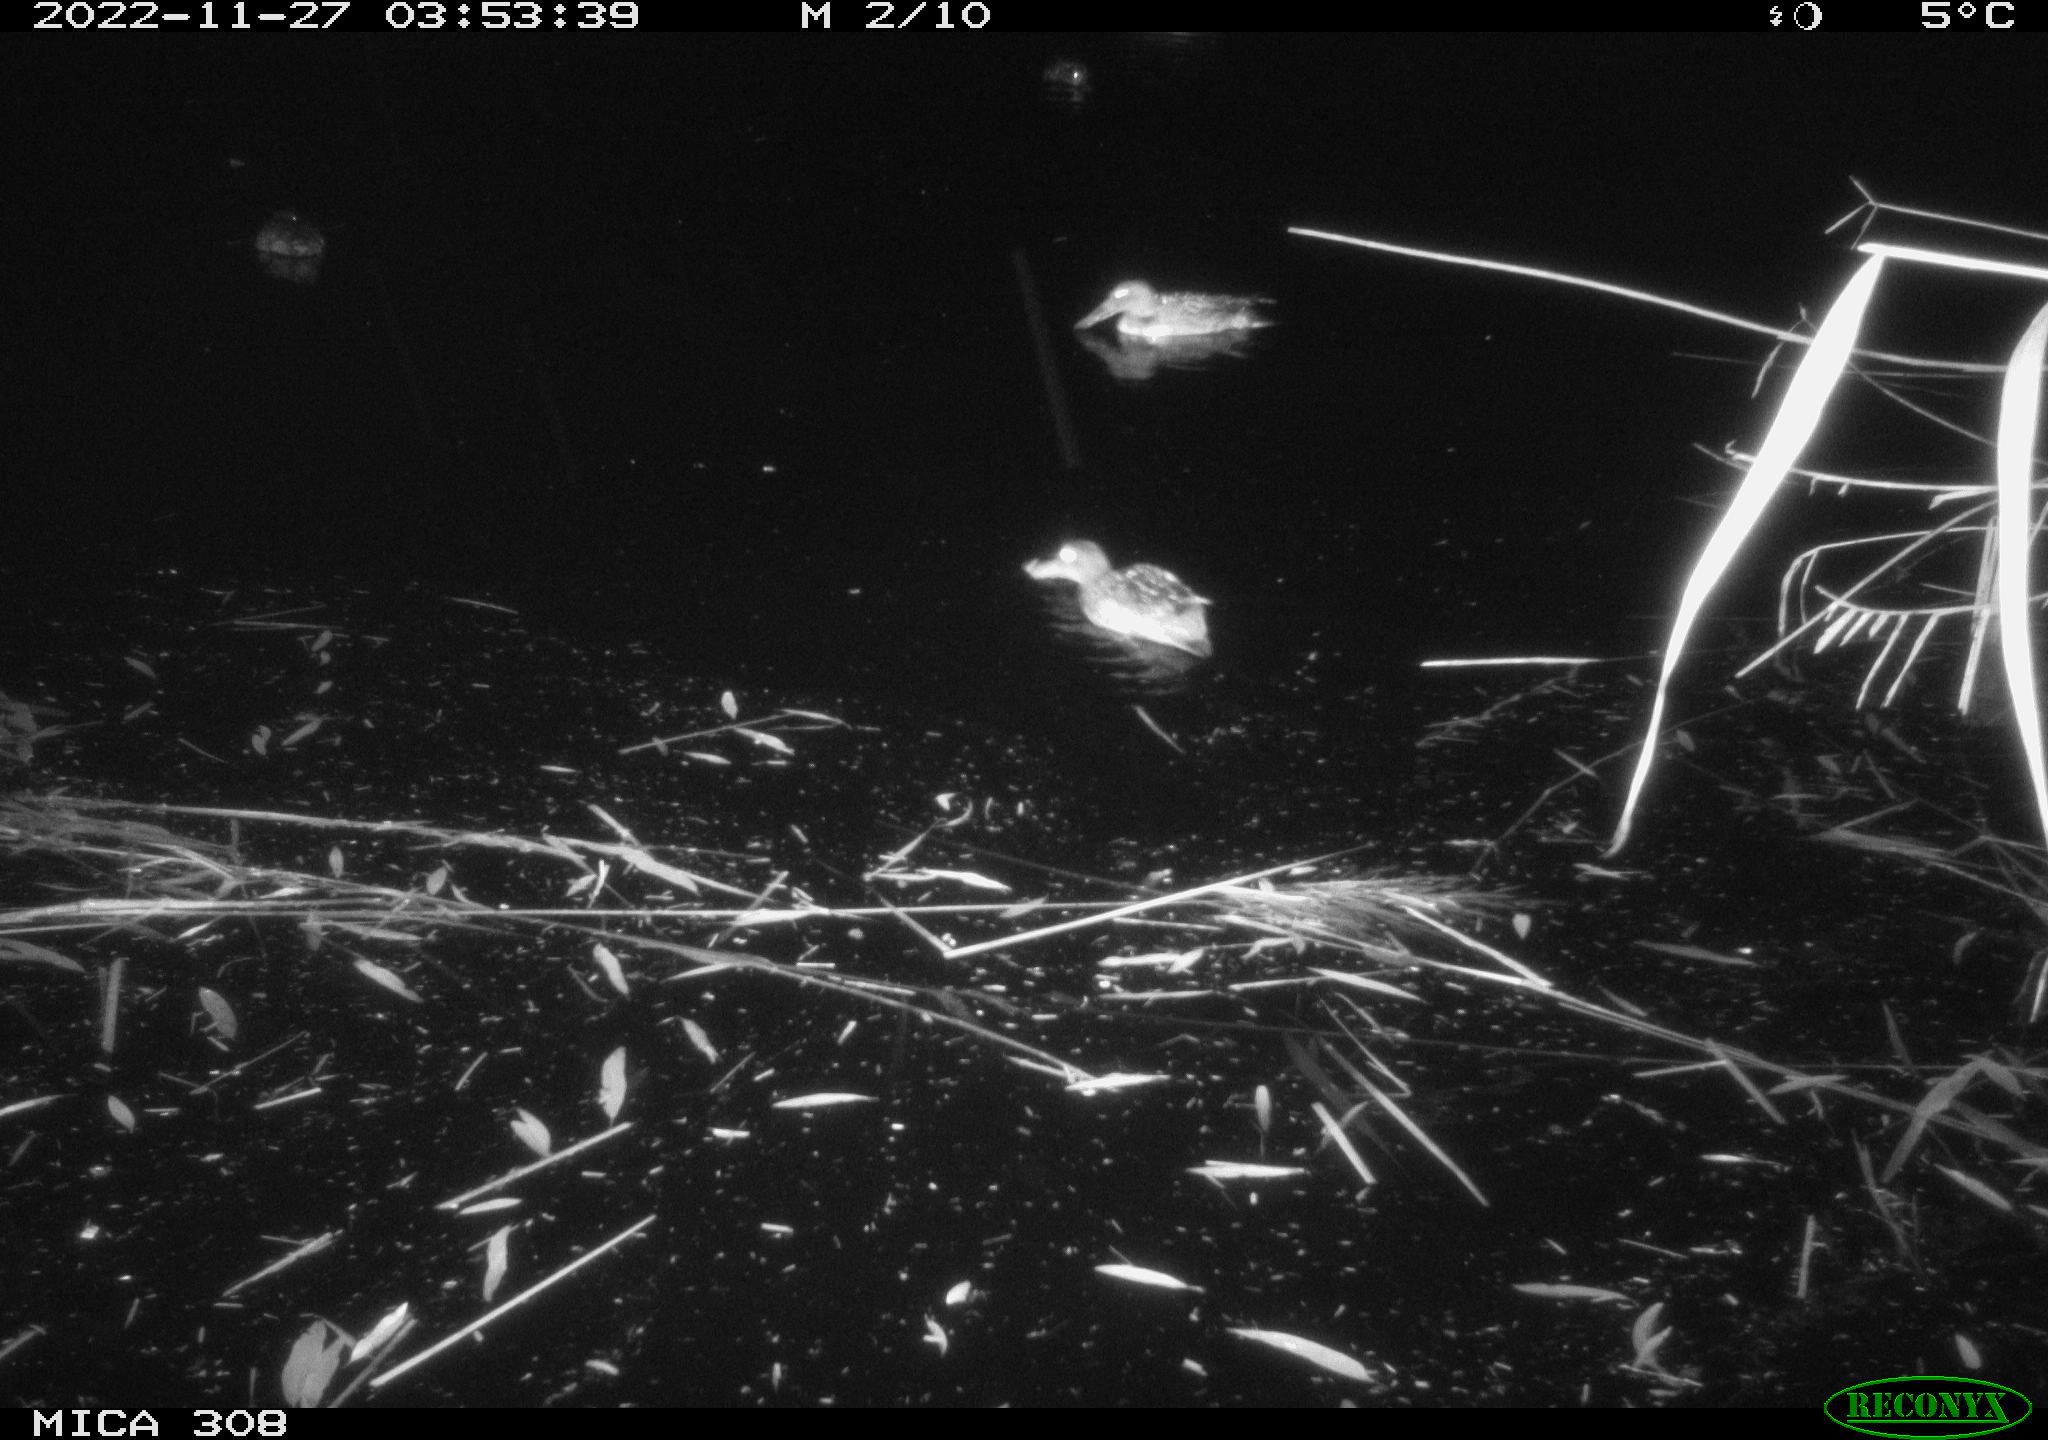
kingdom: Animalia
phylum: Chordata
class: Aves
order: Anseriformes
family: Anatidae
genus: Anas
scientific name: Anas
